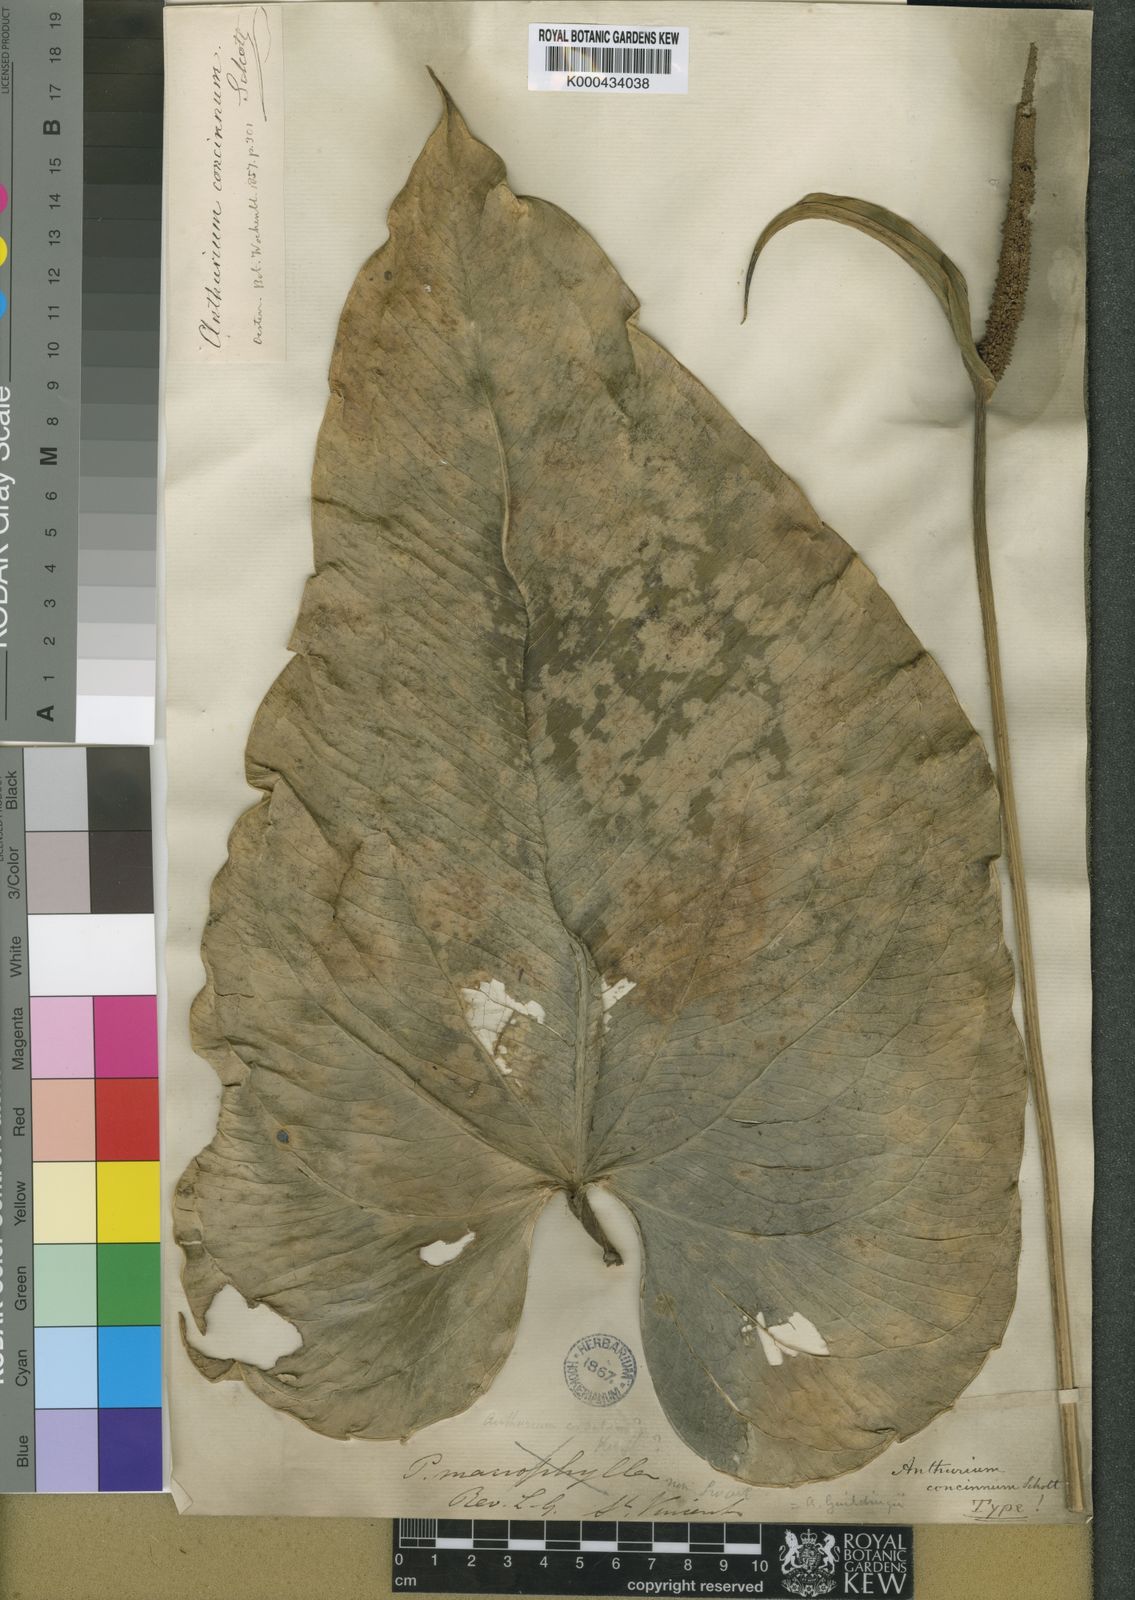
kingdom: Plantae
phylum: Tracheophyta
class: Liliopsida
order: Alismatales
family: Araceae
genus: Anthurium
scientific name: Anthurium grandifolium
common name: Monkey tail
